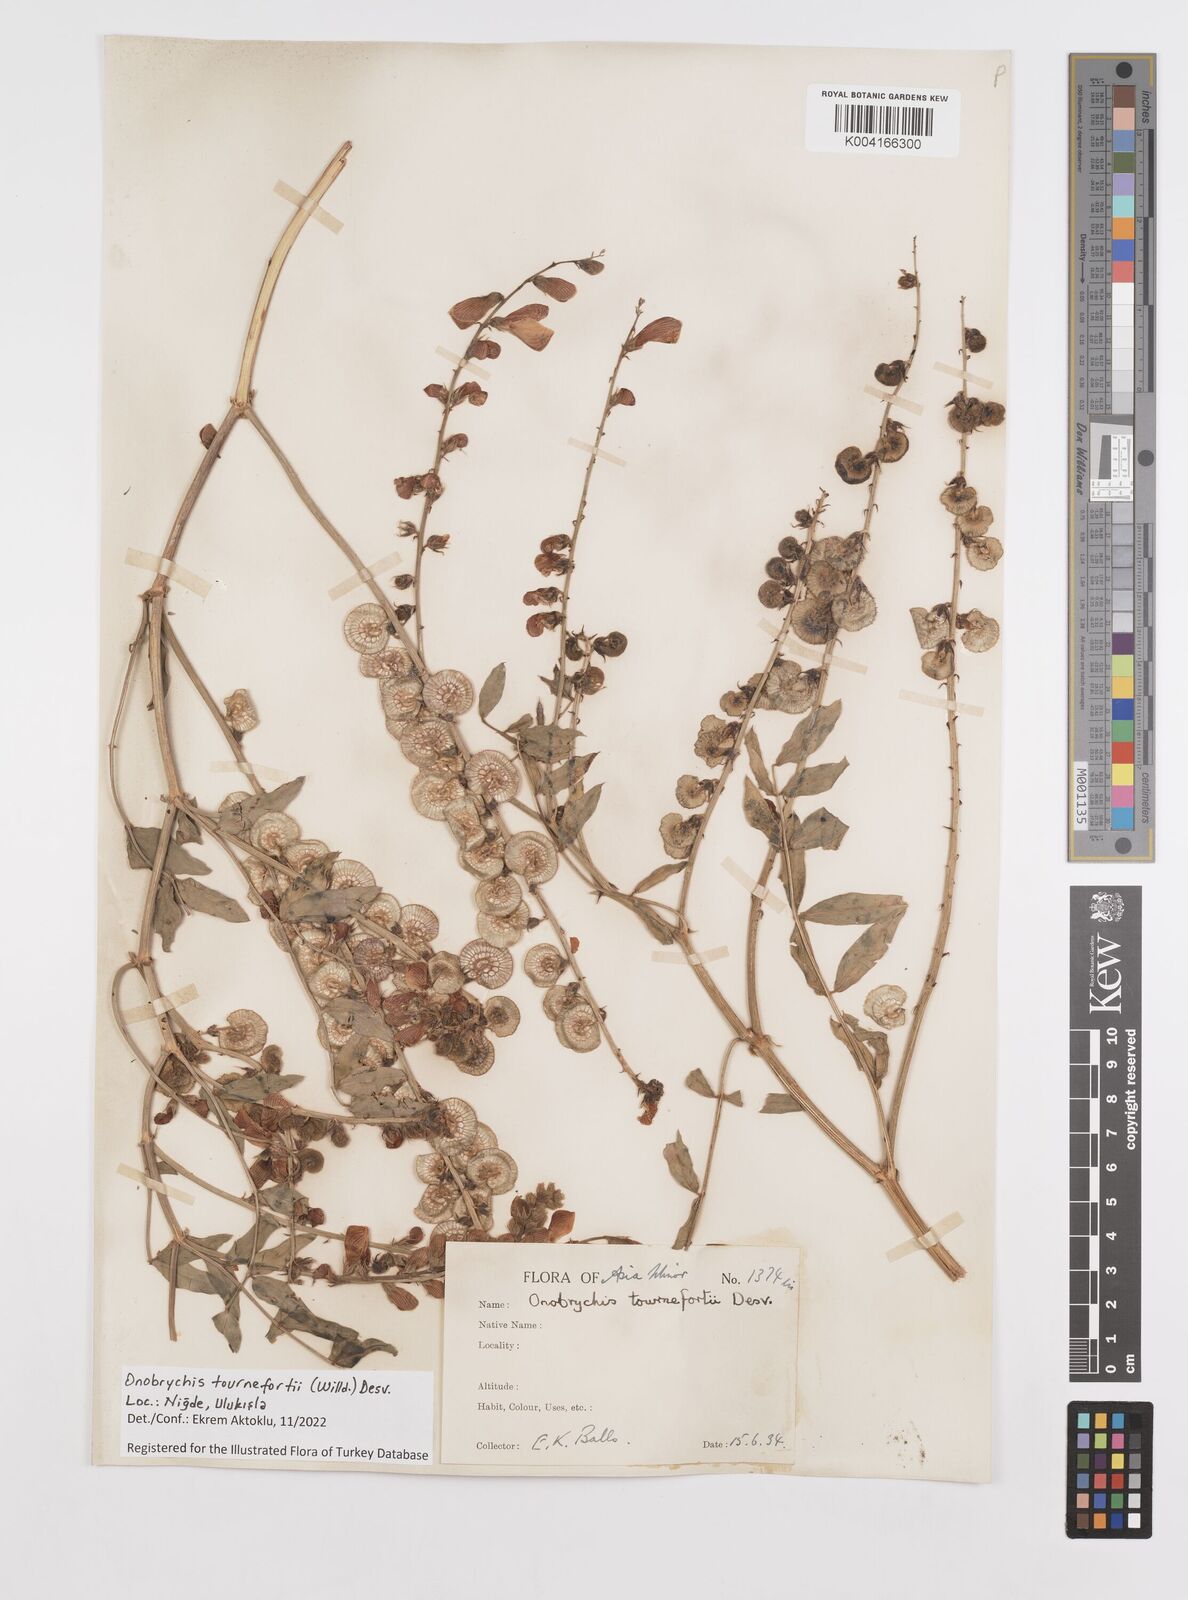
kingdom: Plantae
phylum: Tracheophyta
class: Magnoliopsida
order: Fabales
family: Fabaceae
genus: Onobrychis
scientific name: Onobrychis tournefortii
